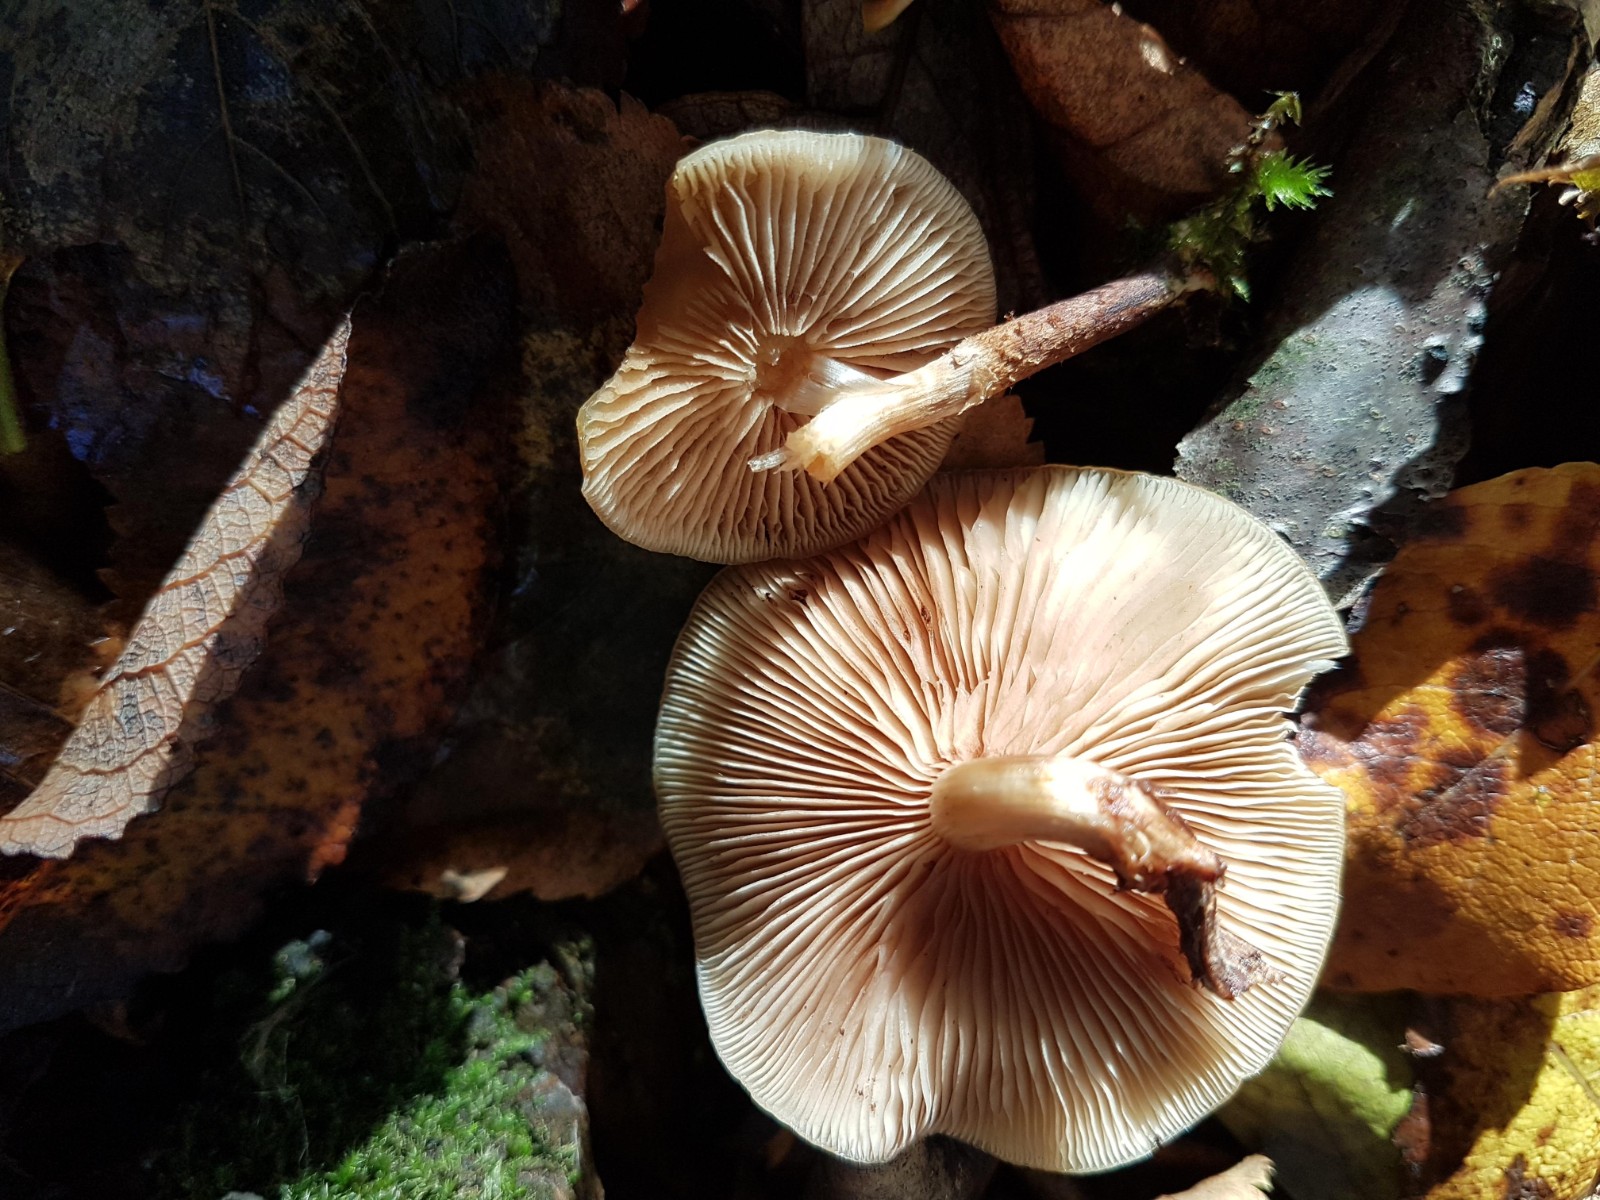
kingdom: Fungi
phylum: Basidiomycota
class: Agaricomycetes
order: Agaricales
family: Strophariaceae
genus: Kuehneromyces
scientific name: Kuehneromyces mutabilis
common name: foranderlig skælhat
